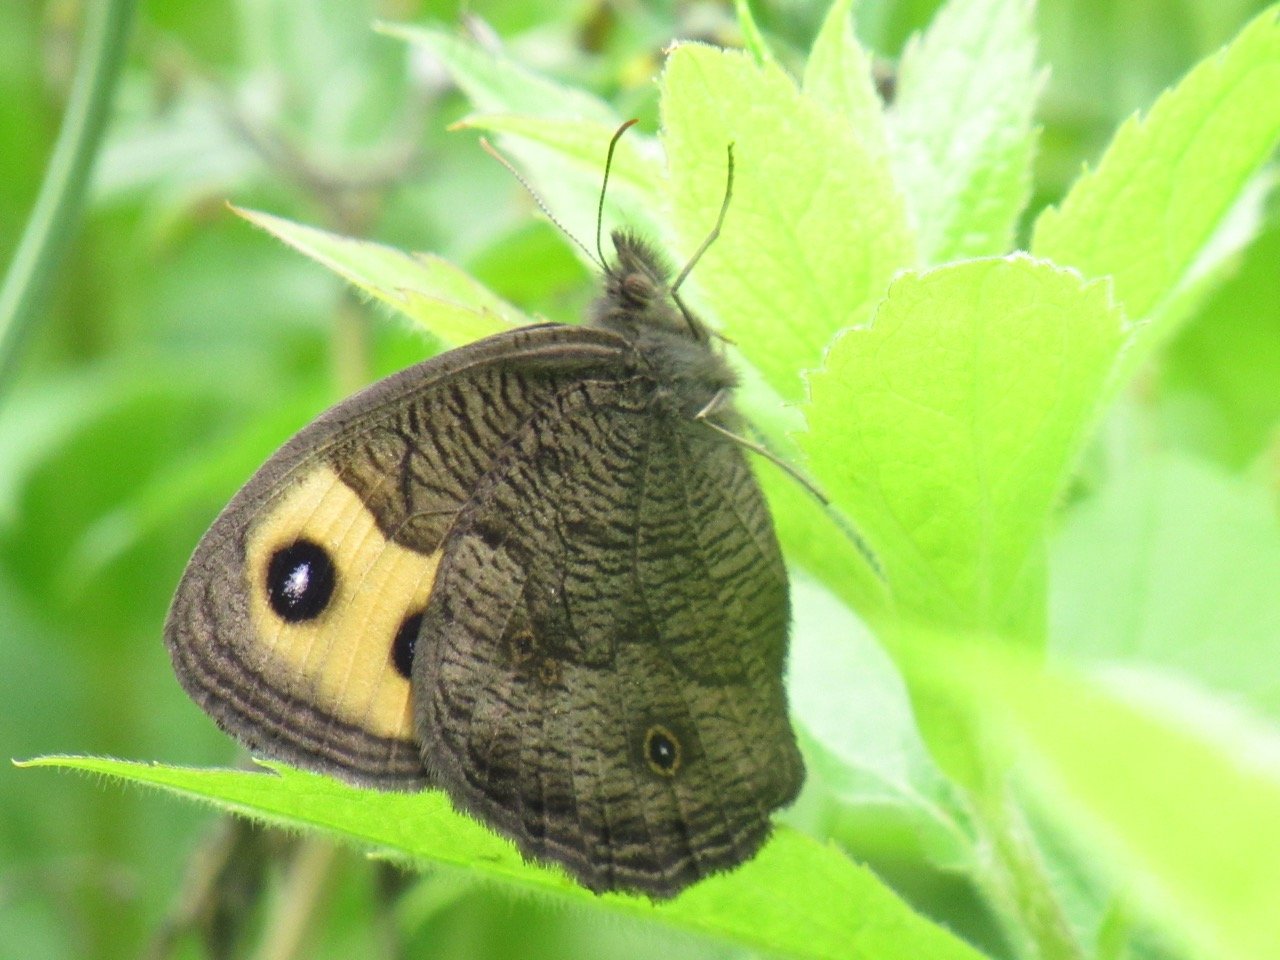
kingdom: Animalia
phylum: Arthropoda
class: Insecta
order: Lepidoptera
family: Nymphalidae
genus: Cercyonis
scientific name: Cercyonis pegala
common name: Common Wood-Nymph
